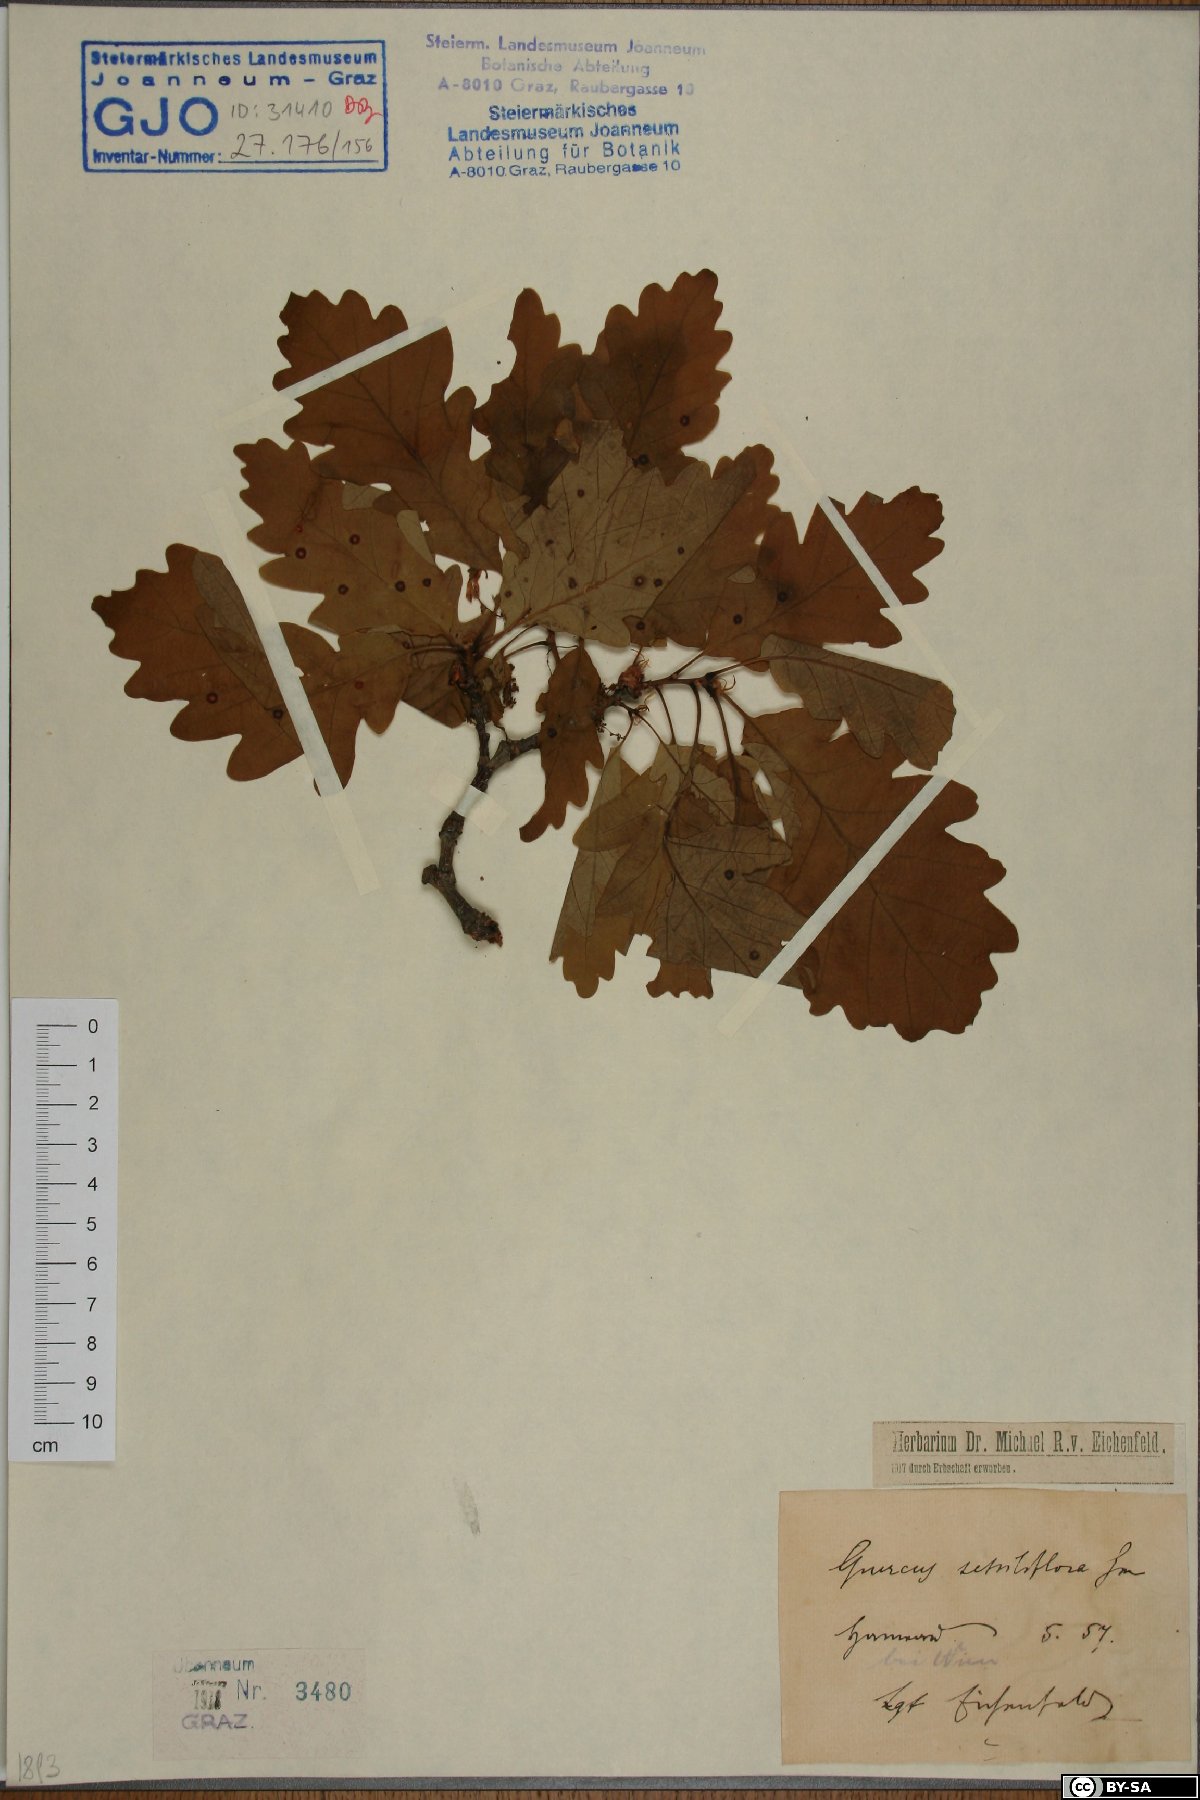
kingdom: Plantae
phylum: Tracheophyta
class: Magnoliopsida
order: Fagales
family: Fagaceae
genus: Quercus
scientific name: Quercus petraea
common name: Sessile oak
